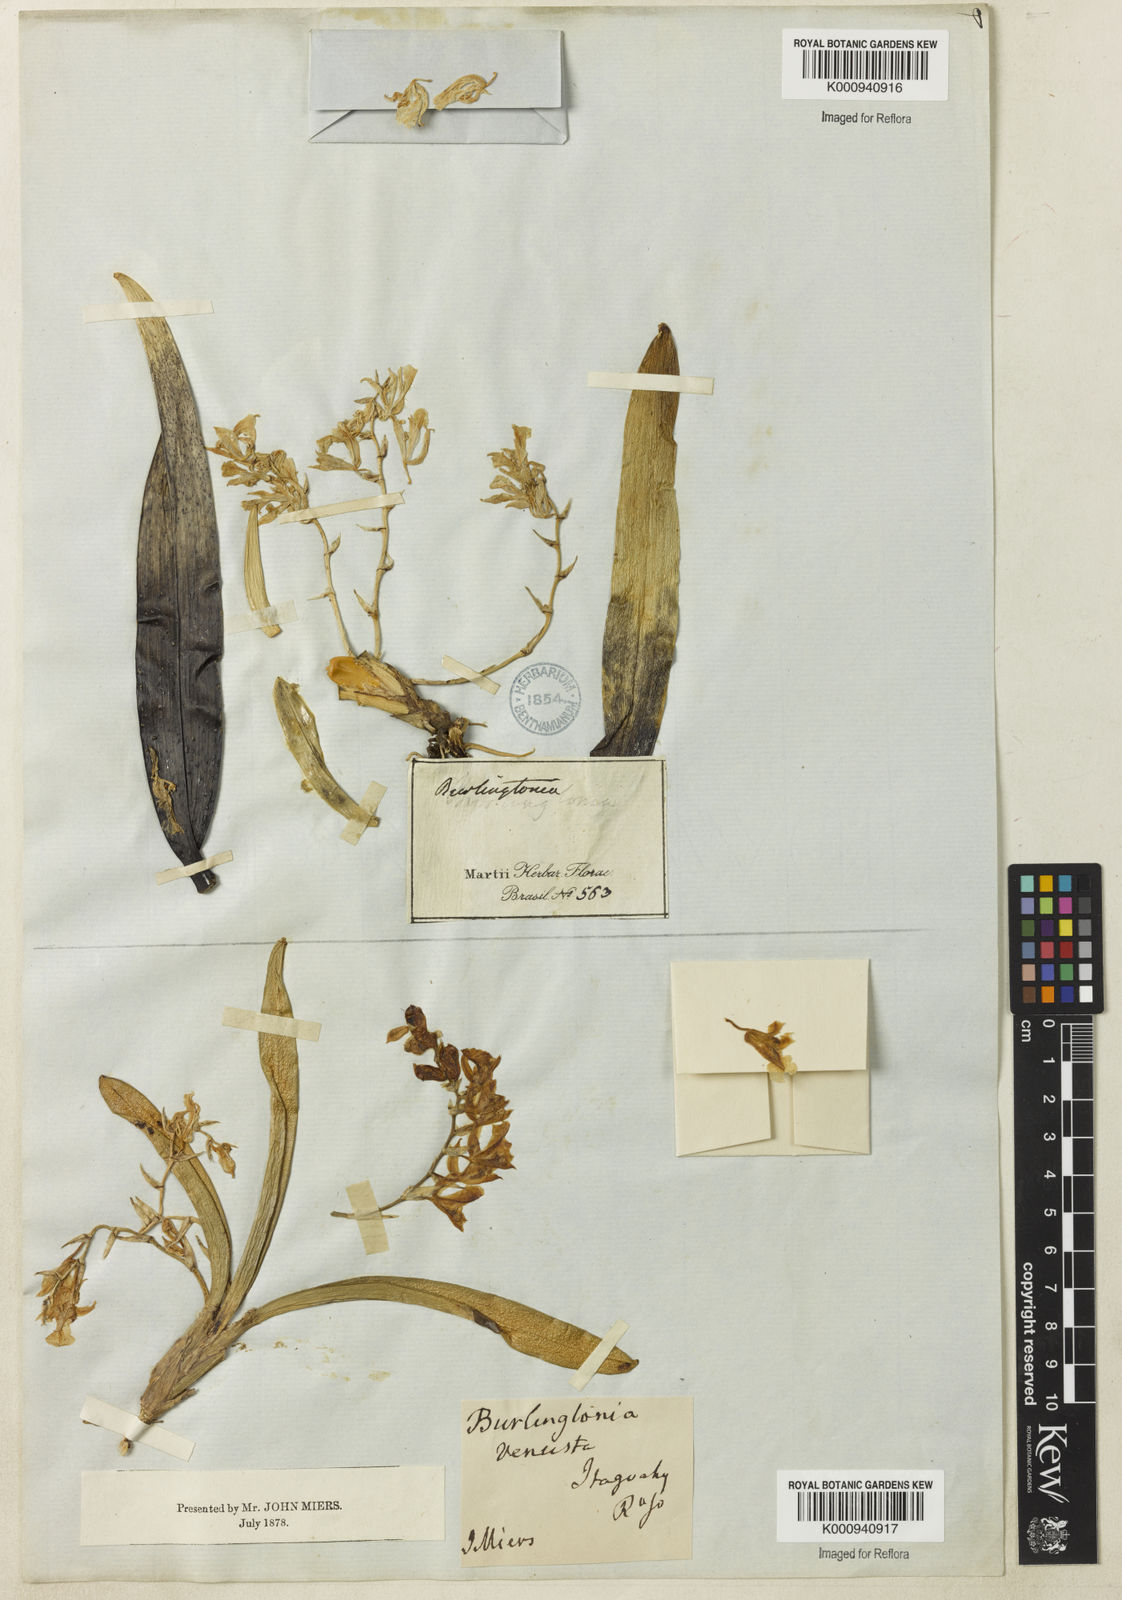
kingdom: Plantae
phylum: Tracheophyta
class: Liliopsida
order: Asparagales
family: Orchidaceae
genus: Rodriguezia
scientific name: Rodriguezia bracteata
